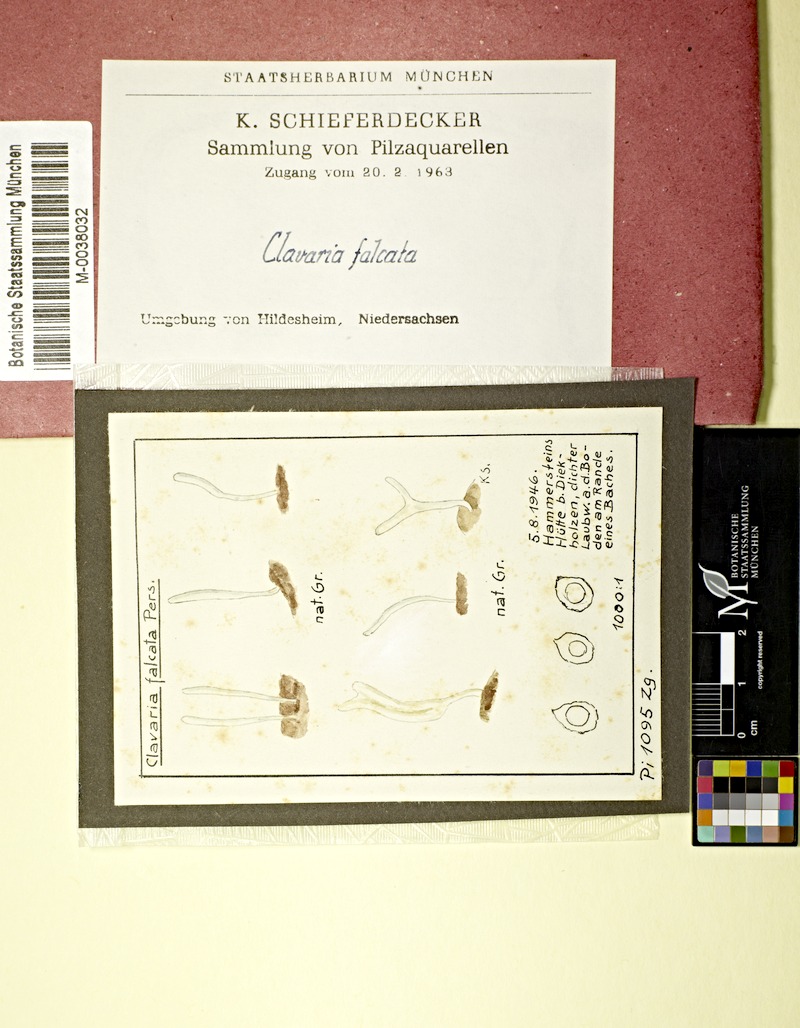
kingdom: Fungi
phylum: Basidiomycota
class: Agaricomycetes
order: Agaricales
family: Clavariaceae
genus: Clavaria
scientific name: Clavaria falcata
